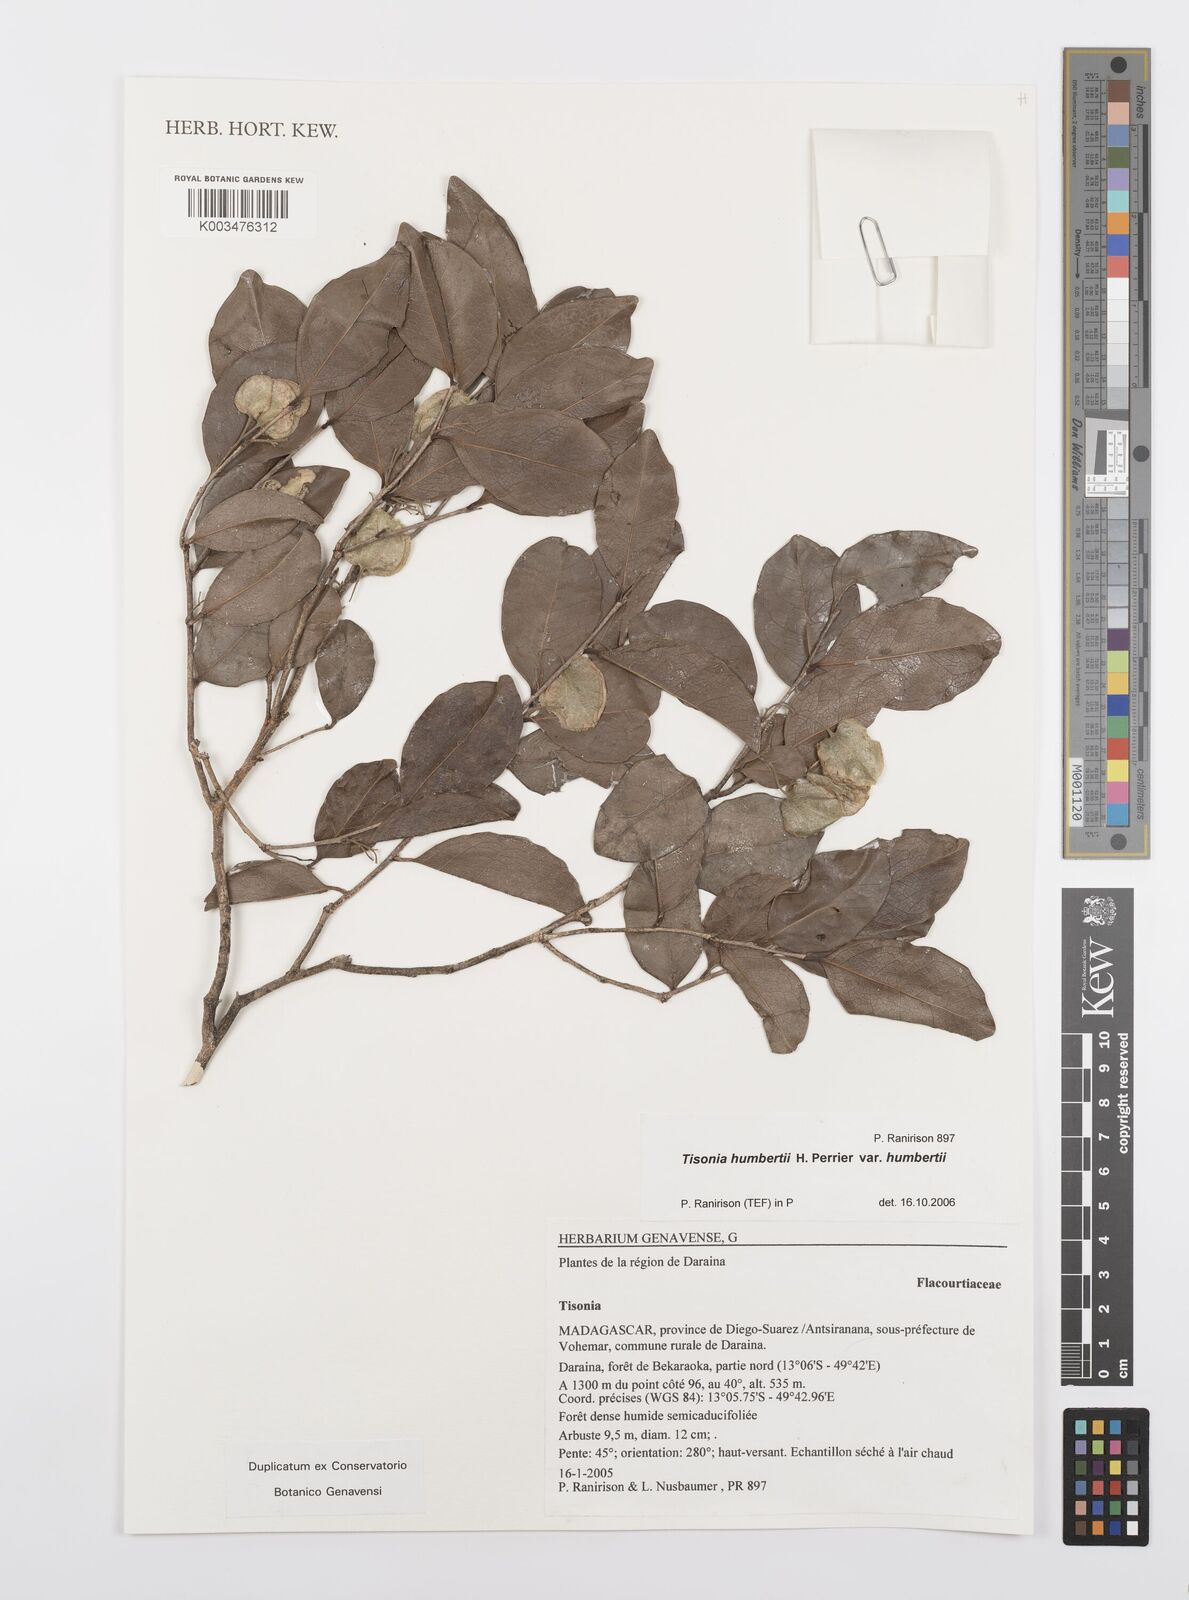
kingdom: Plantae
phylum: Tracheophyta
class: Magnoliopsida
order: Malpighiales
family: Salicaceae
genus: Tisonia
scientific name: Tisonia humbertii
